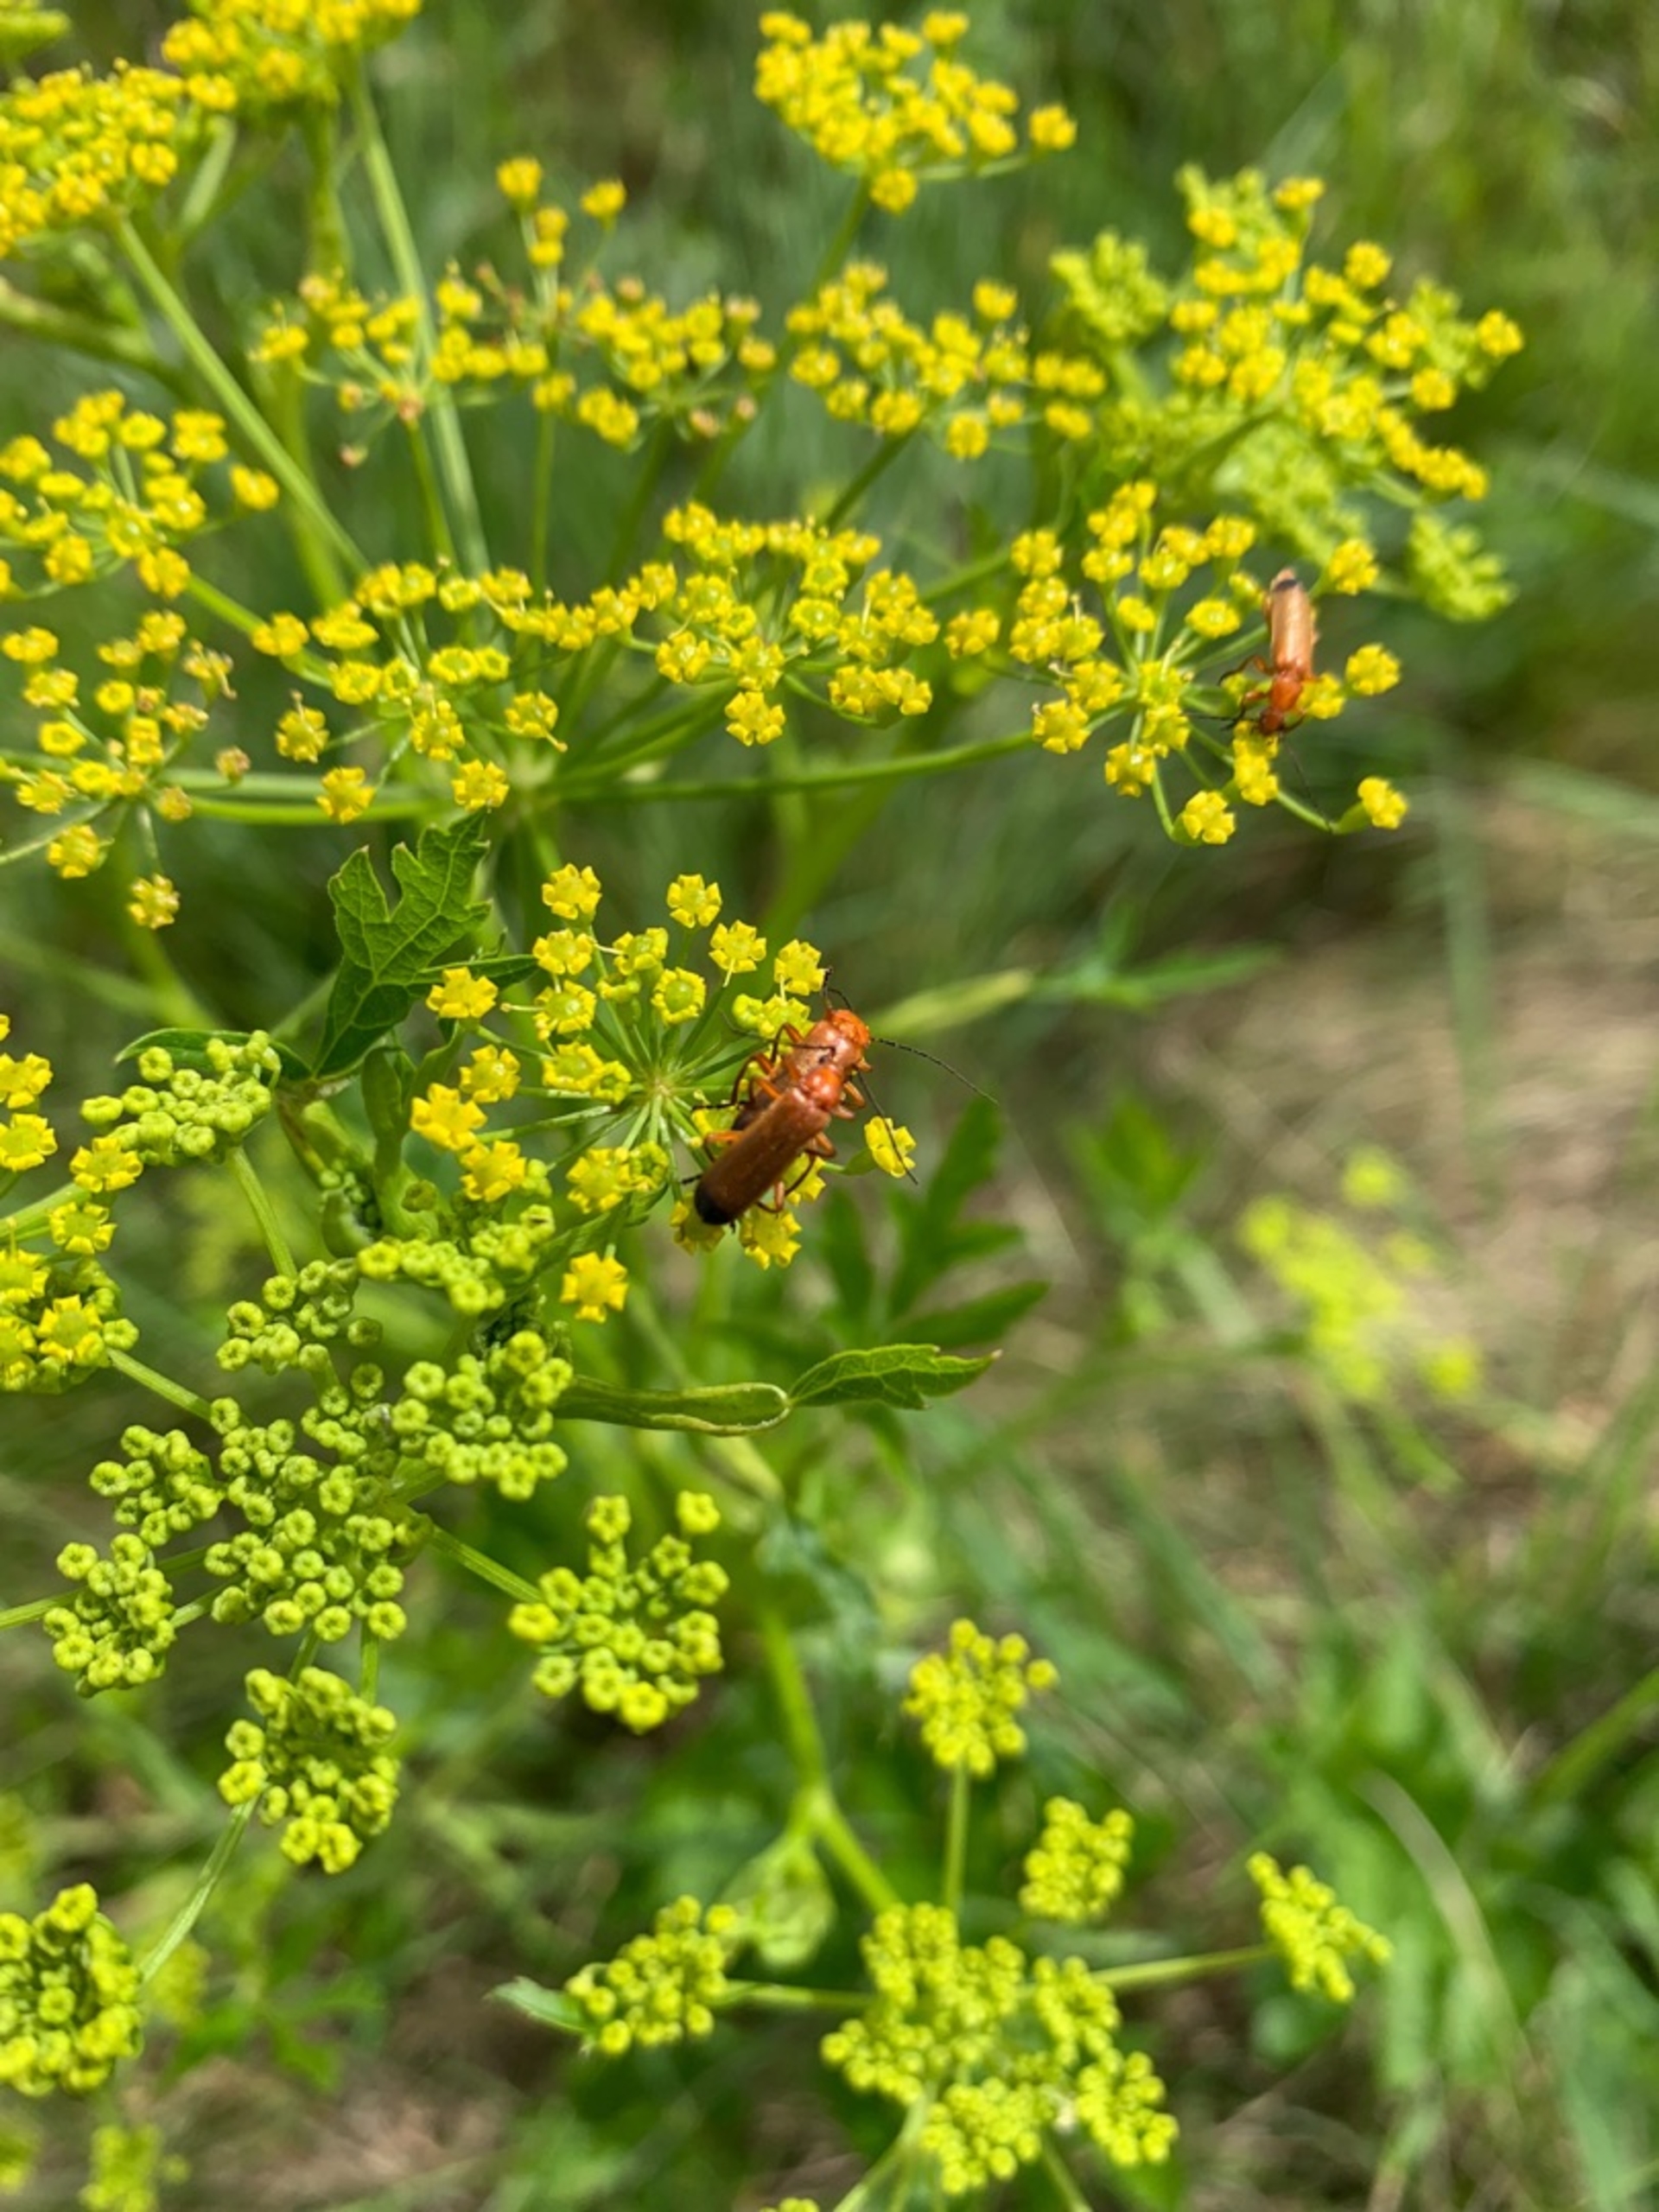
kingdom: Animalia
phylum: Arthropoda
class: Insecta
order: Coleoptera
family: Cantharidae
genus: Rhagonycha
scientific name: Rhagonycha fulva
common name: Præstebille
